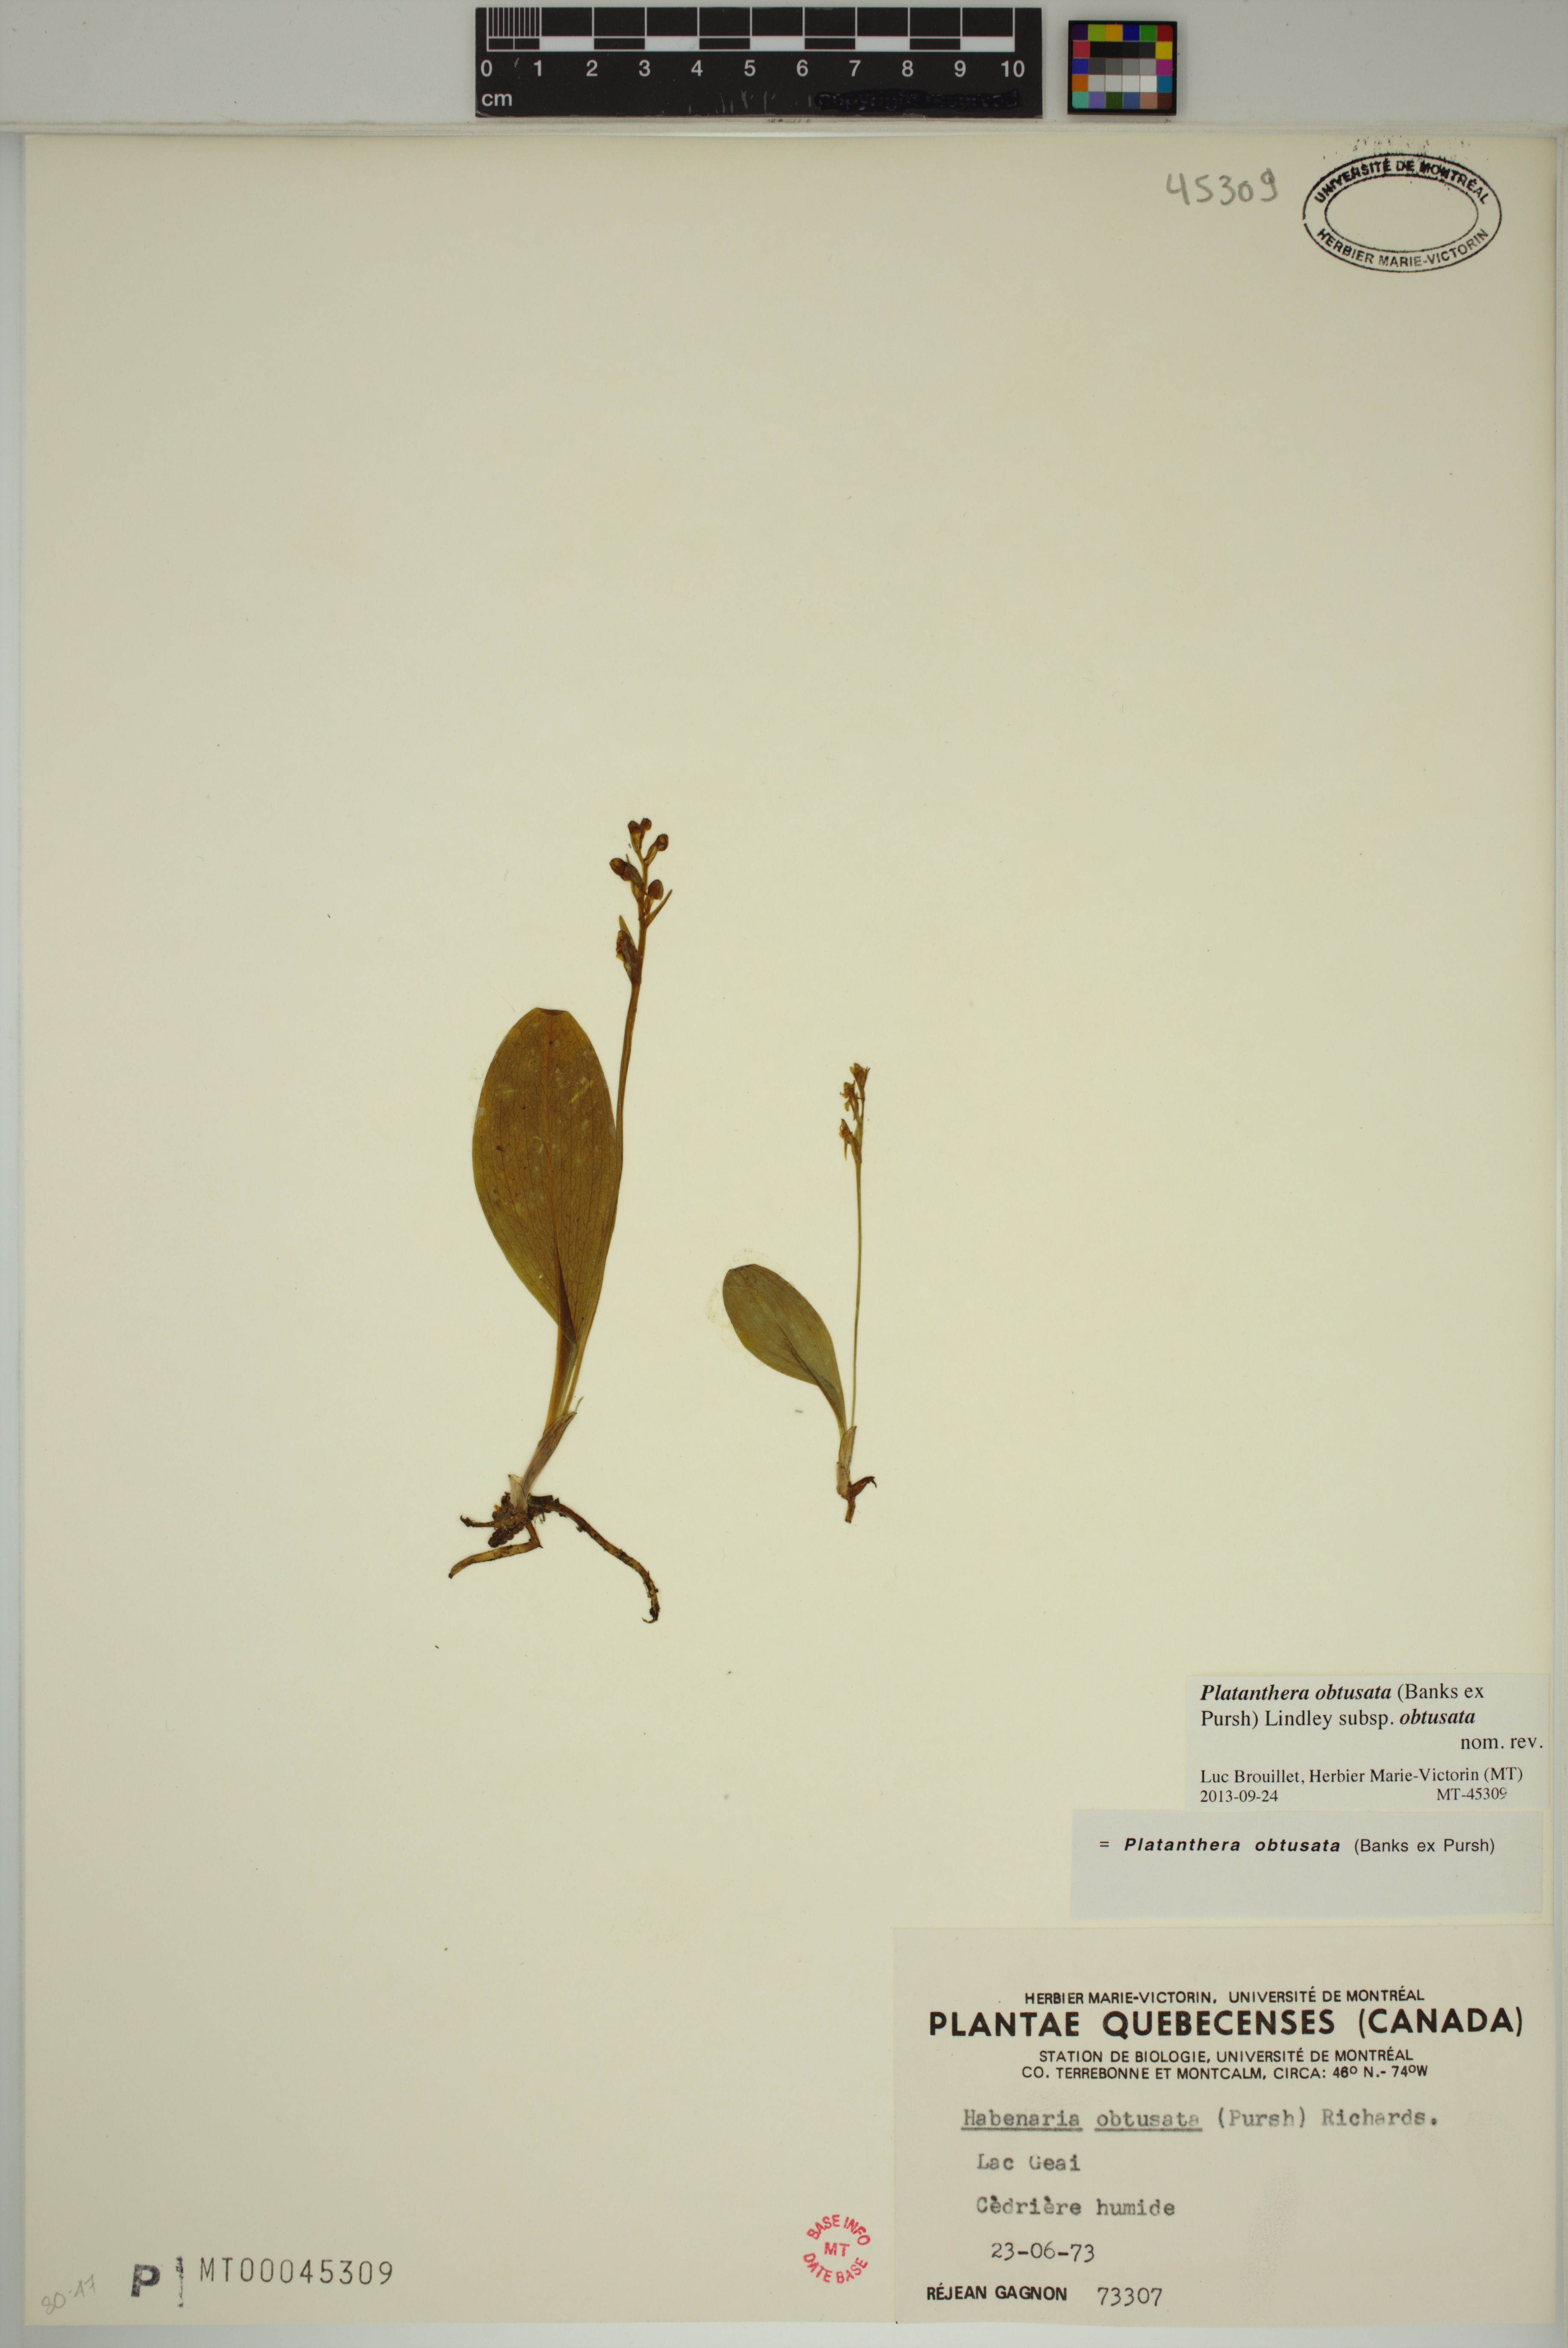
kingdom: Plantae
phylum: Tracheophyta
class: Liliopsida
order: Asparagales
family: Orchidaceae
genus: Platanthera
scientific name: Platanthera obtusata
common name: Blunt bog orchid
